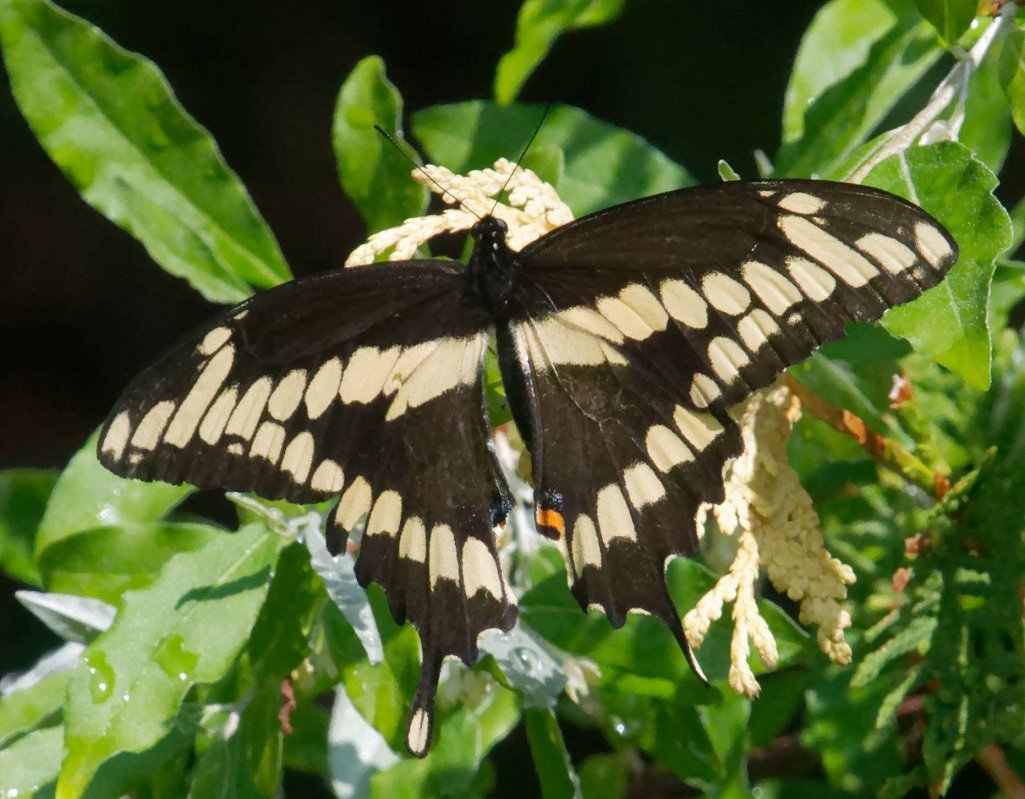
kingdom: Animalia
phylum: Arthropoda
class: Insecta
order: Lepidoptera
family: Papilionidae
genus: Papilio
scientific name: Papilio cresphontes
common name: Eastern Giant Swallowtail
